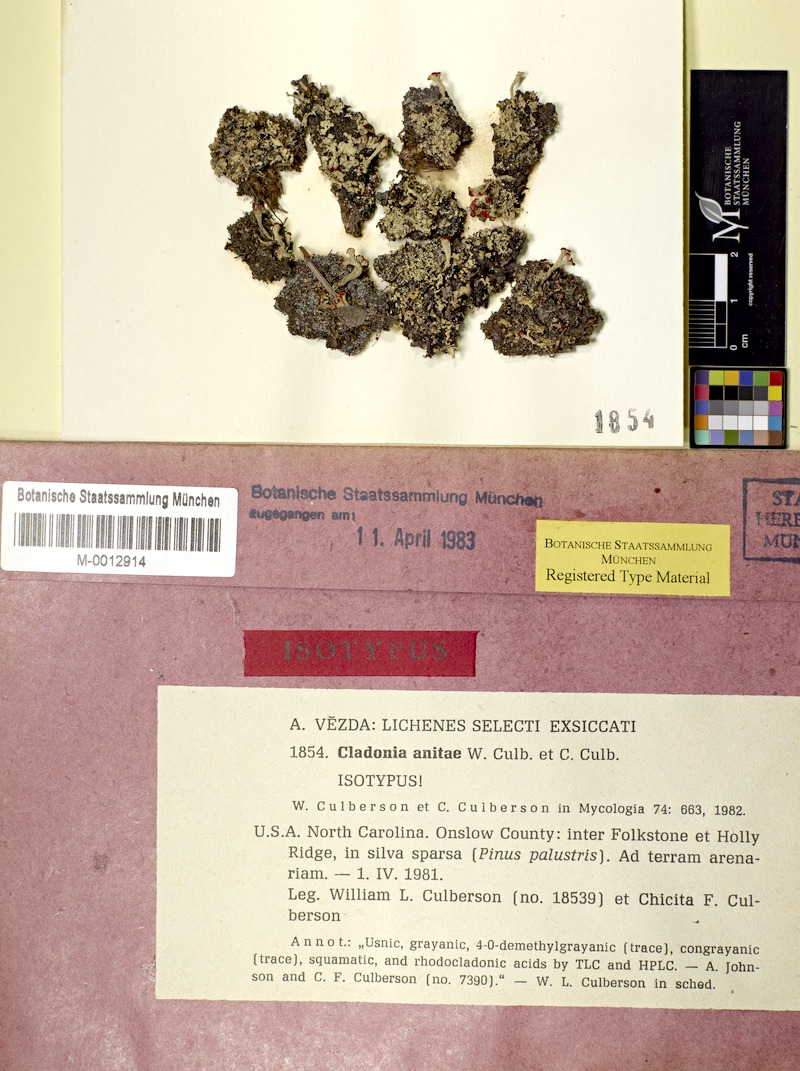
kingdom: Fungi
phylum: Ascomycota
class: Lecanoromycetes
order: Lecanorales
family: Cladoniaceae
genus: Cladonia
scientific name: Cladonia anitae
